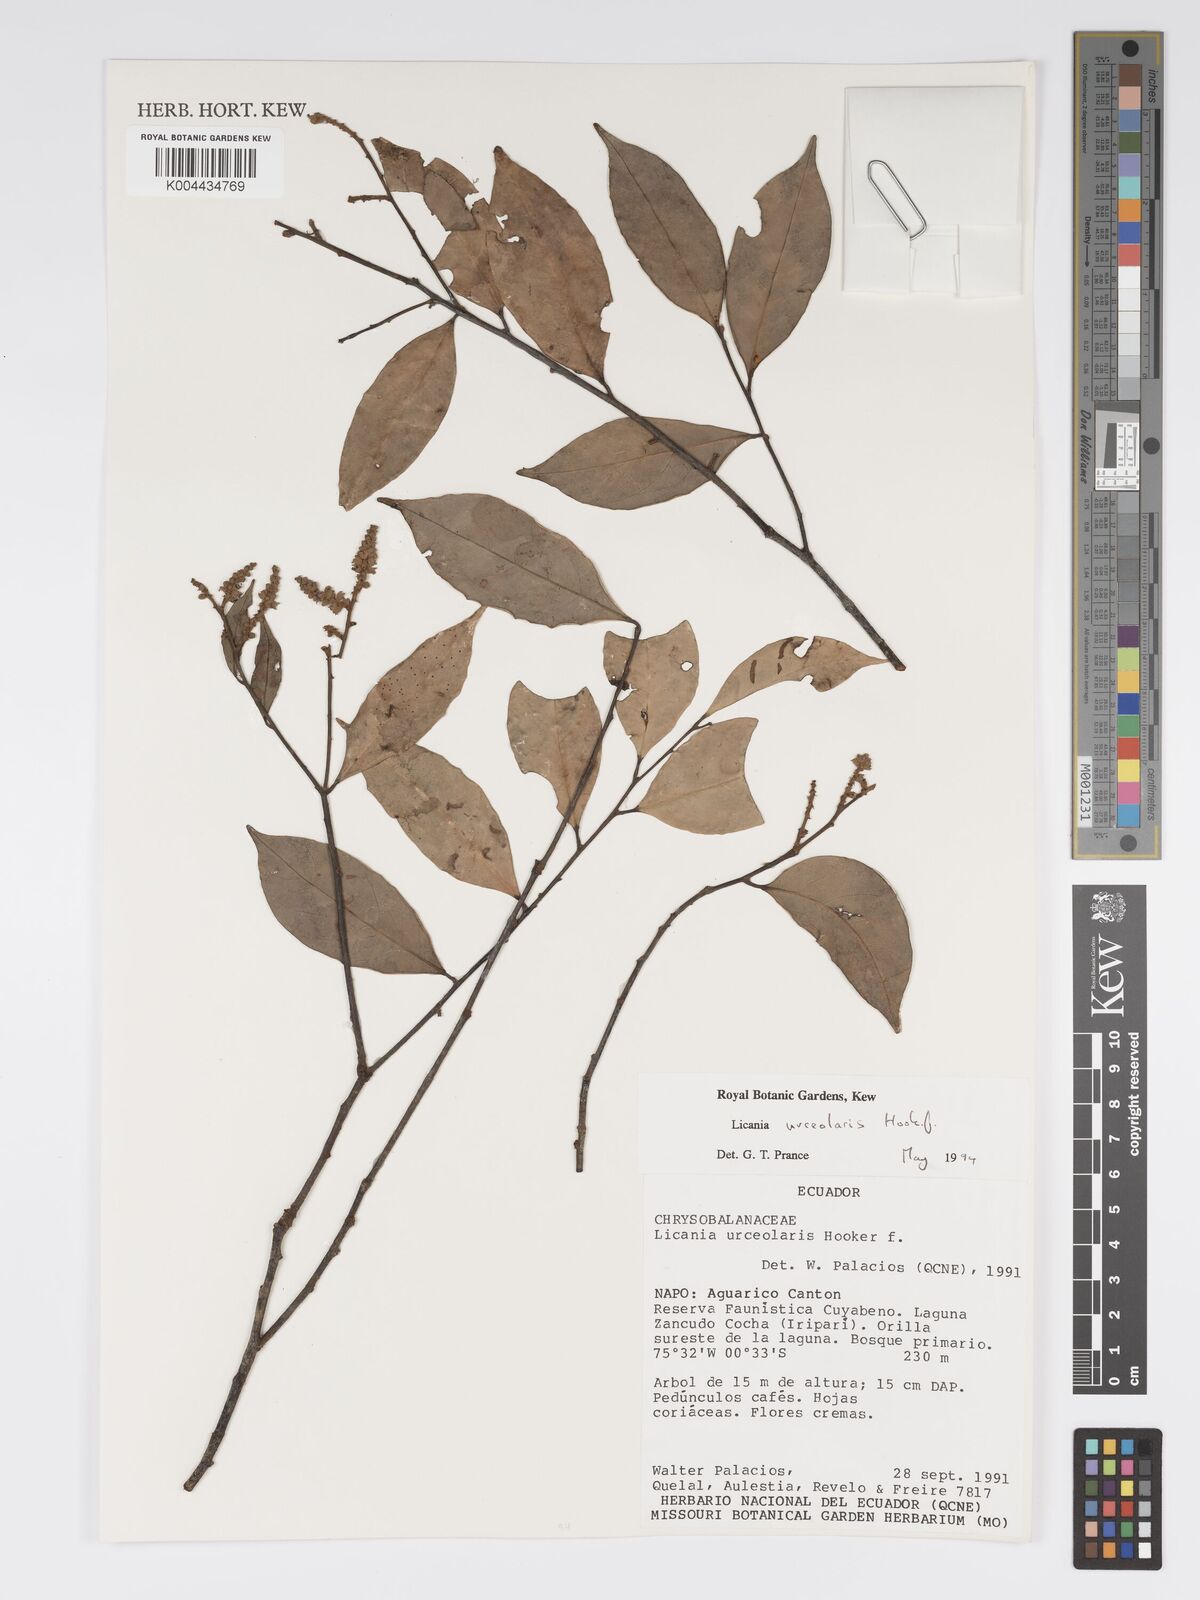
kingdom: Plantae
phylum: Tracheophyta
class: Magnoliopsida
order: Malpighiales
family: Chrysobalanaceae
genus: Licania
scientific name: Licania urceolaris
